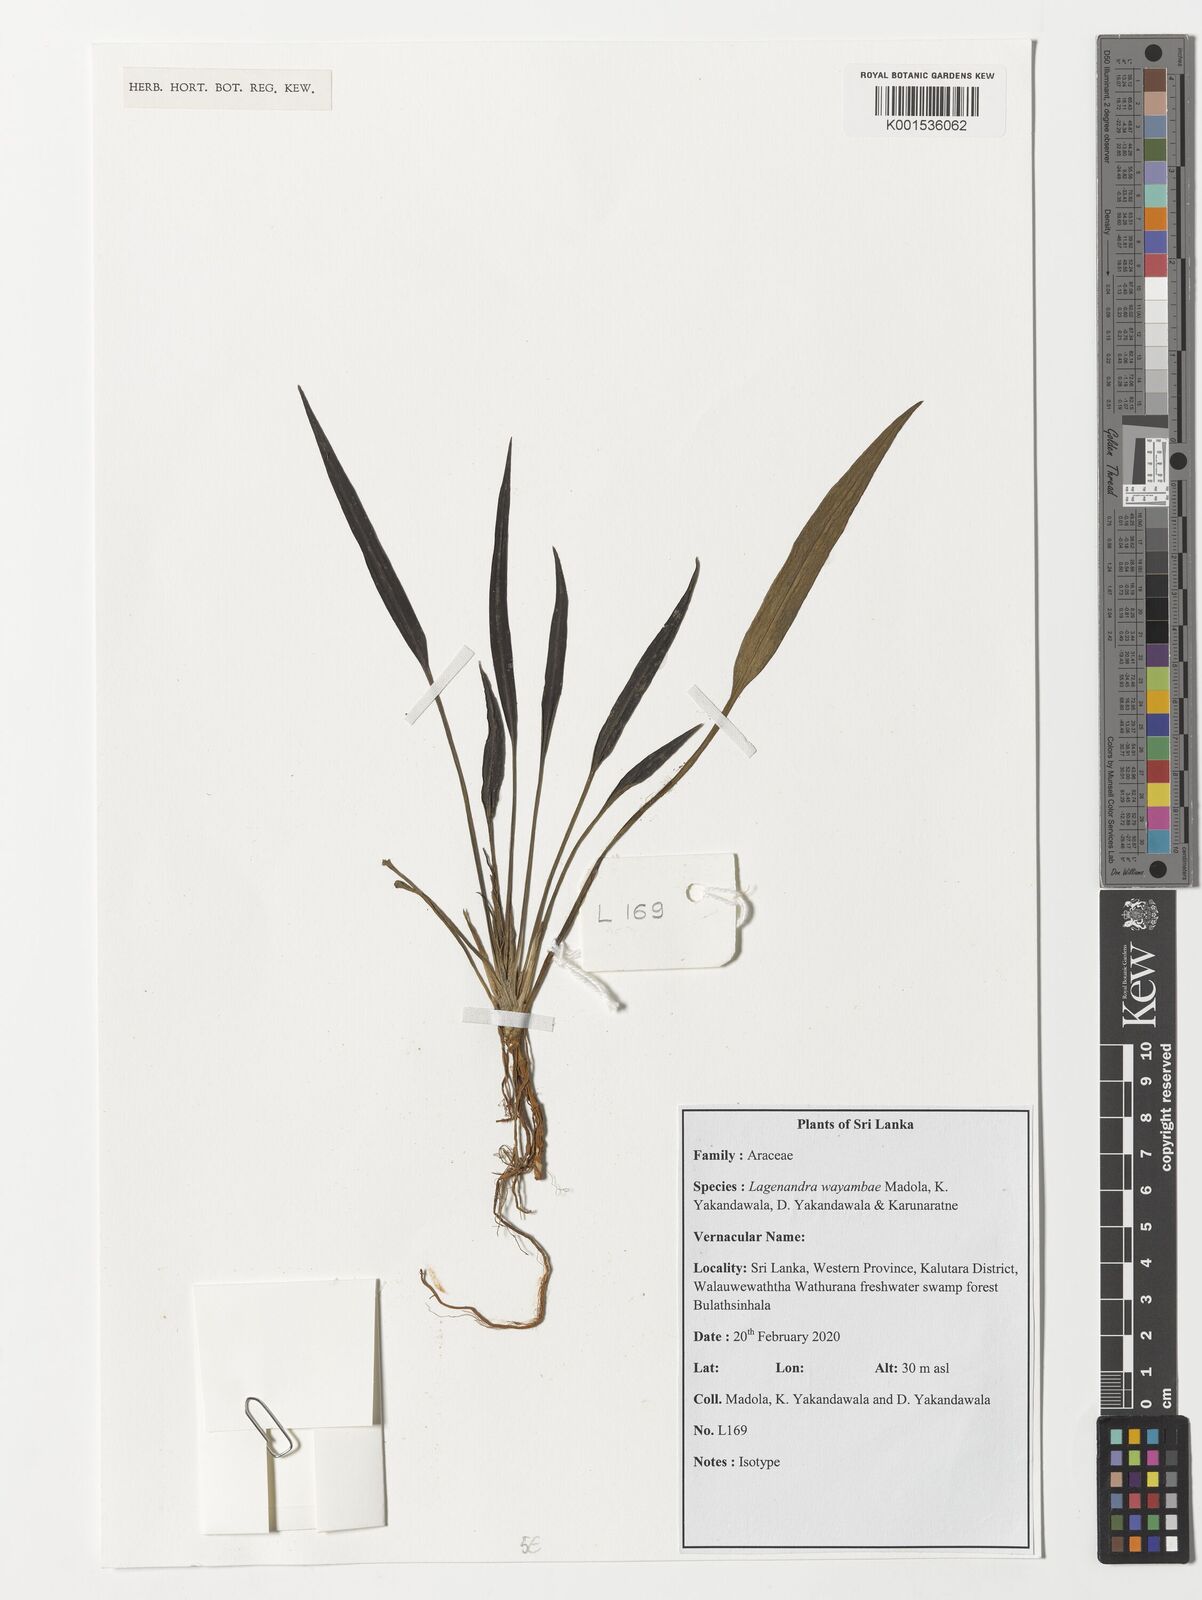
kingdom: Plantae
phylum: Tracheophyta
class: Liliopsida
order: Alismatales
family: Araceae
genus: Lagenandra
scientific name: Lagenandra
